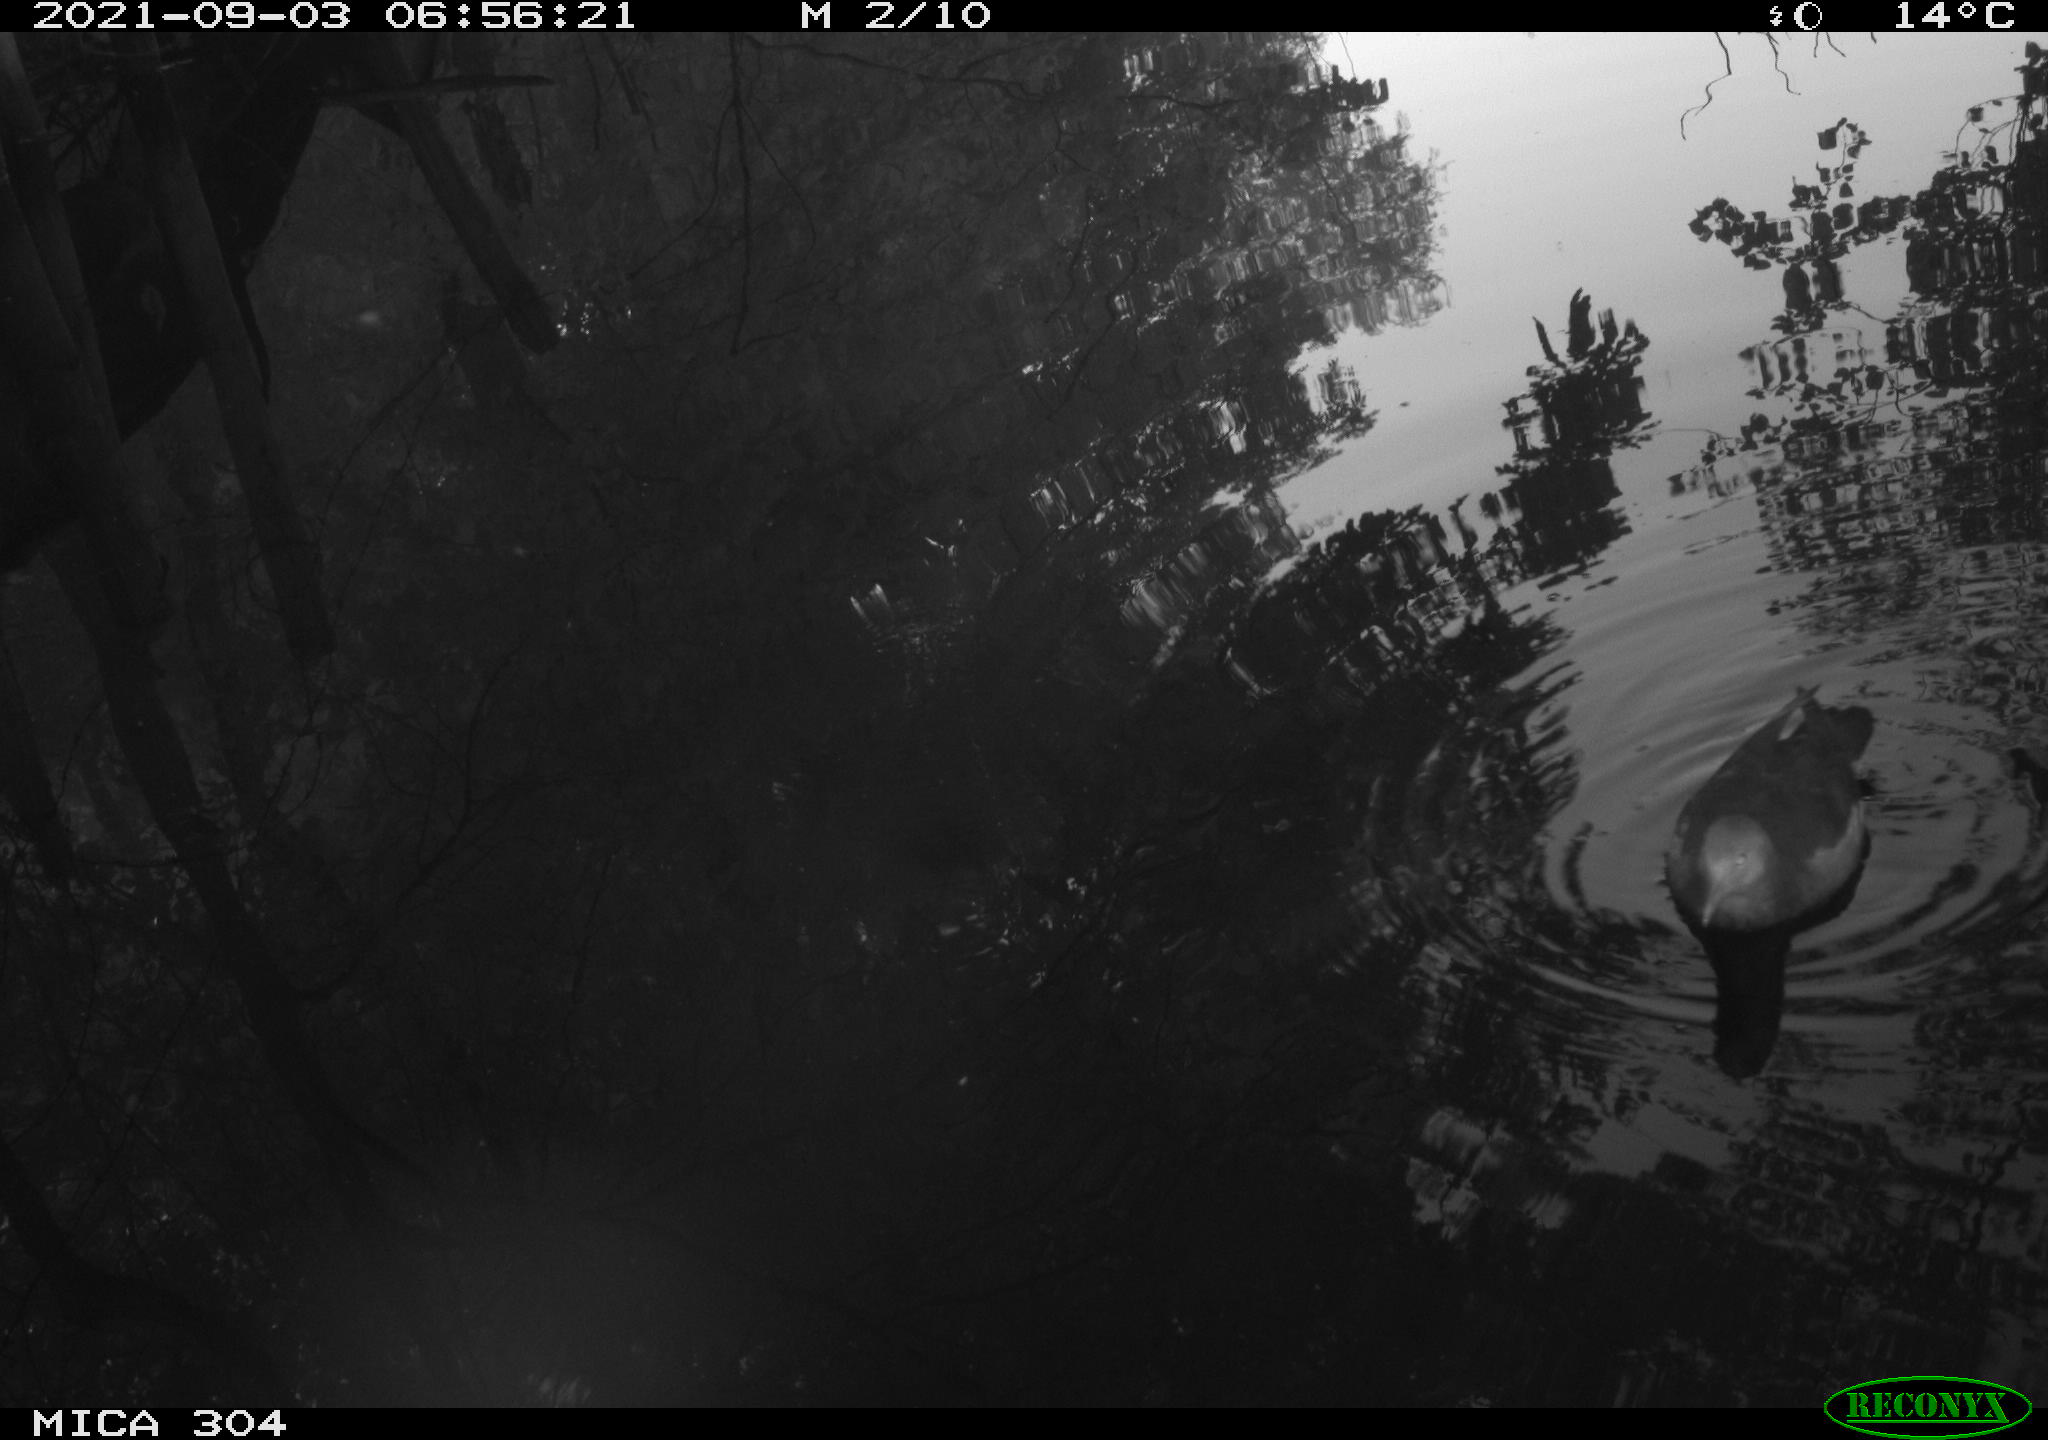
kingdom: Animalia
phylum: Chordata
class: Aves
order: Gruiformes
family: Rallidae
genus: Gallinula
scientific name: Gallinula chloropus
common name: Common moorhen
